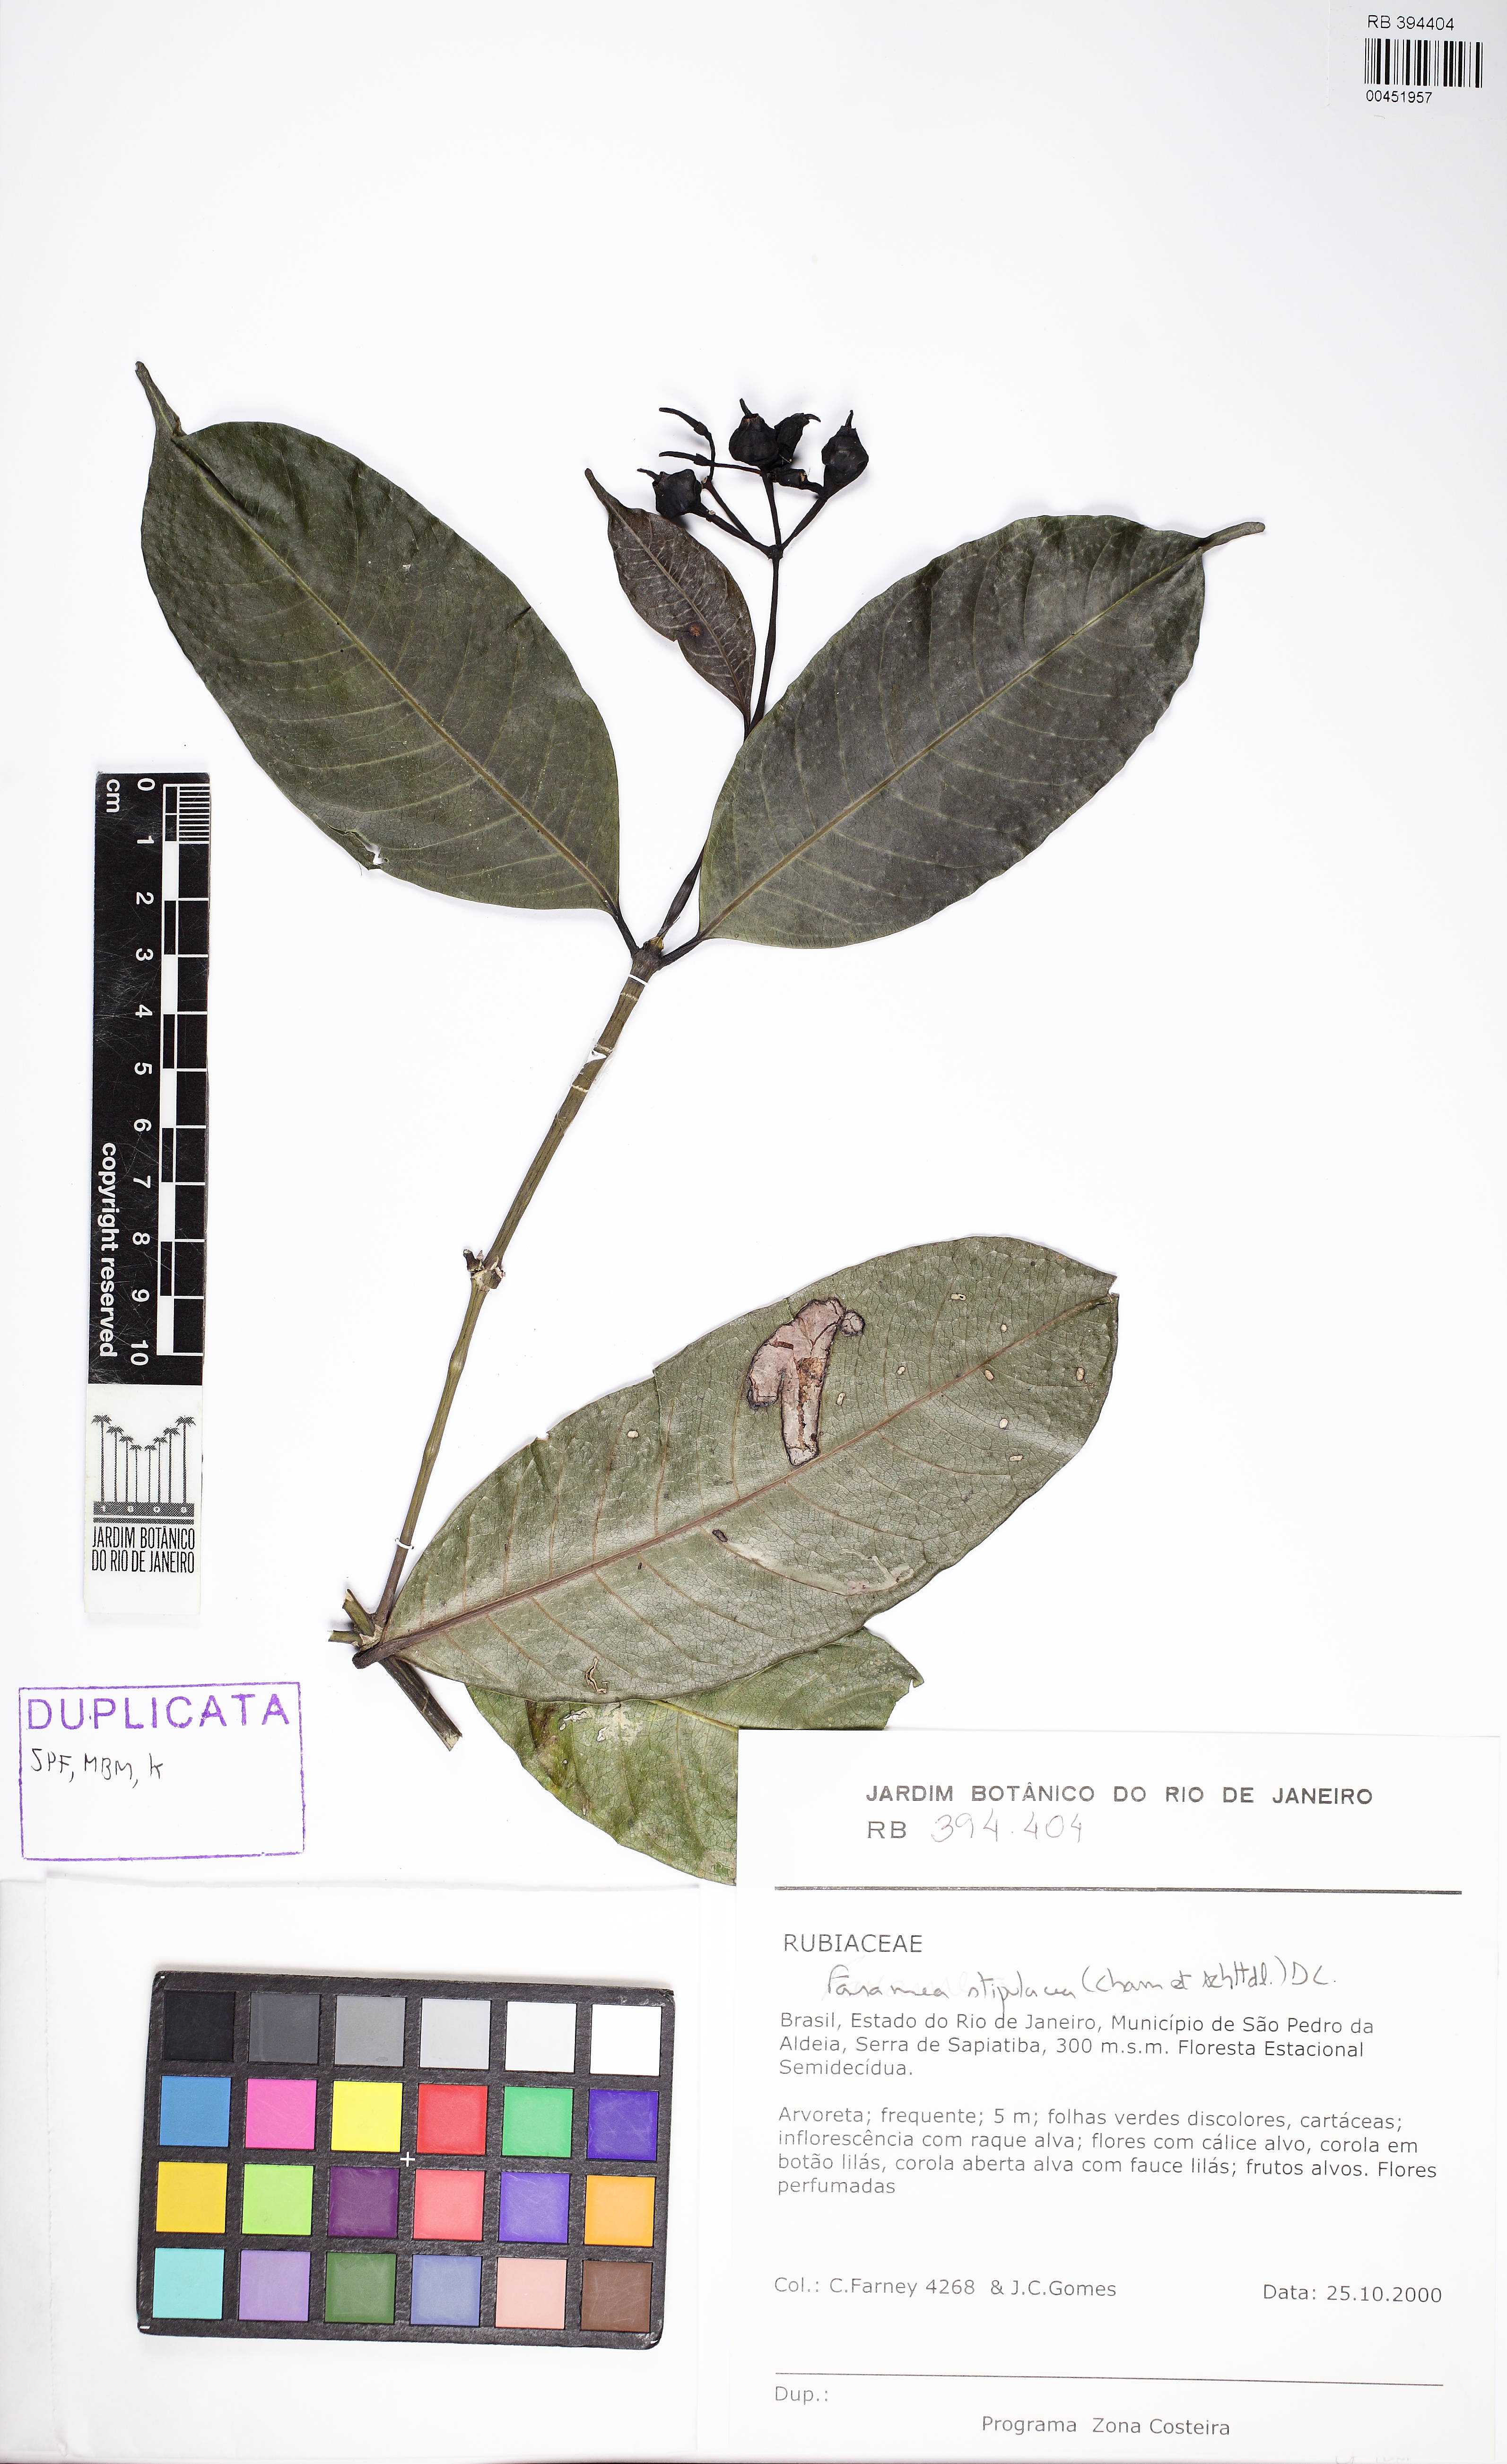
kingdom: Plantae
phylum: Tracheophyta
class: Magnoliopsida
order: Gentianales
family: Rubiaceae
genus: Faramea
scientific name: Faramea stipulacea
